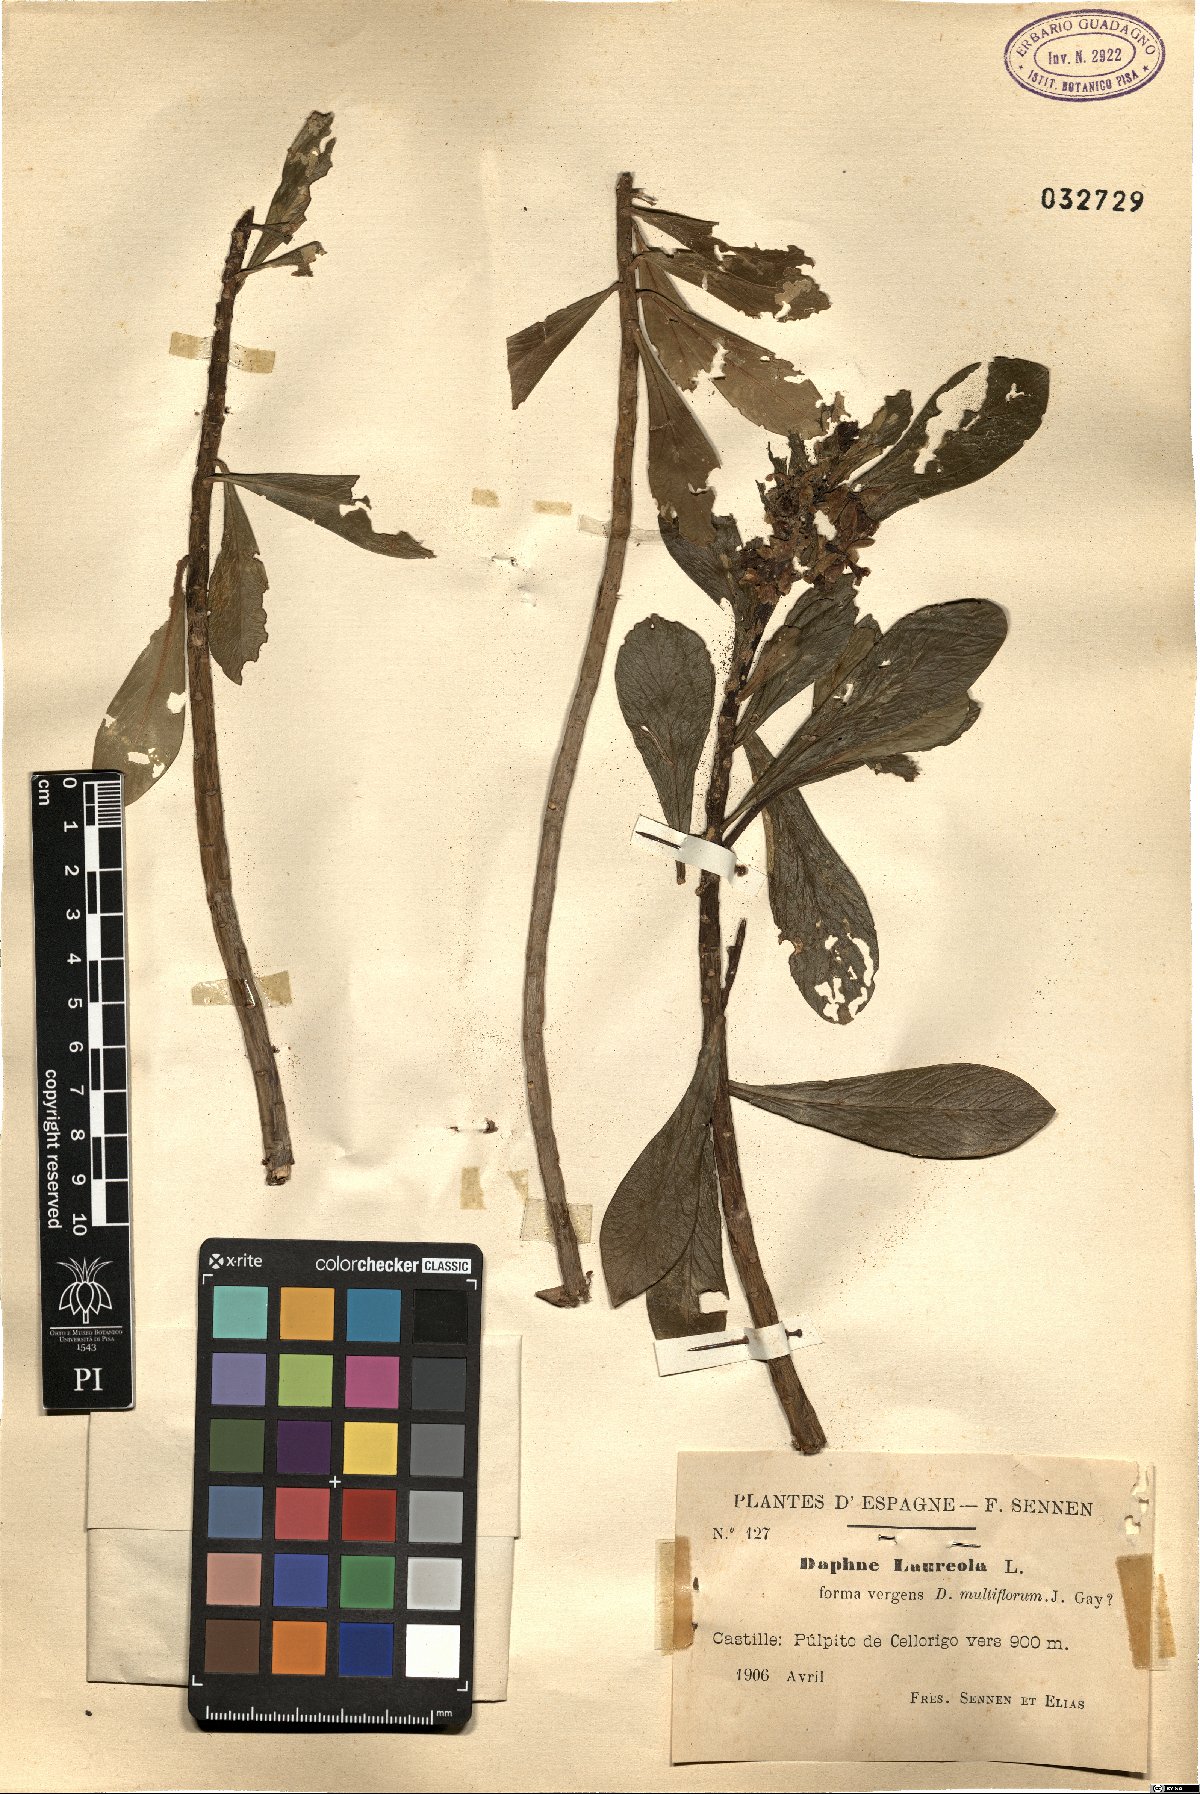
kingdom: Plantae
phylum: Tracheophyta
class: Magnoliopsida
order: Malvales
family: Thymelaeaceae
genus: Daphne
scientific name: Daphne laureola
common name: Spurge-laurel
